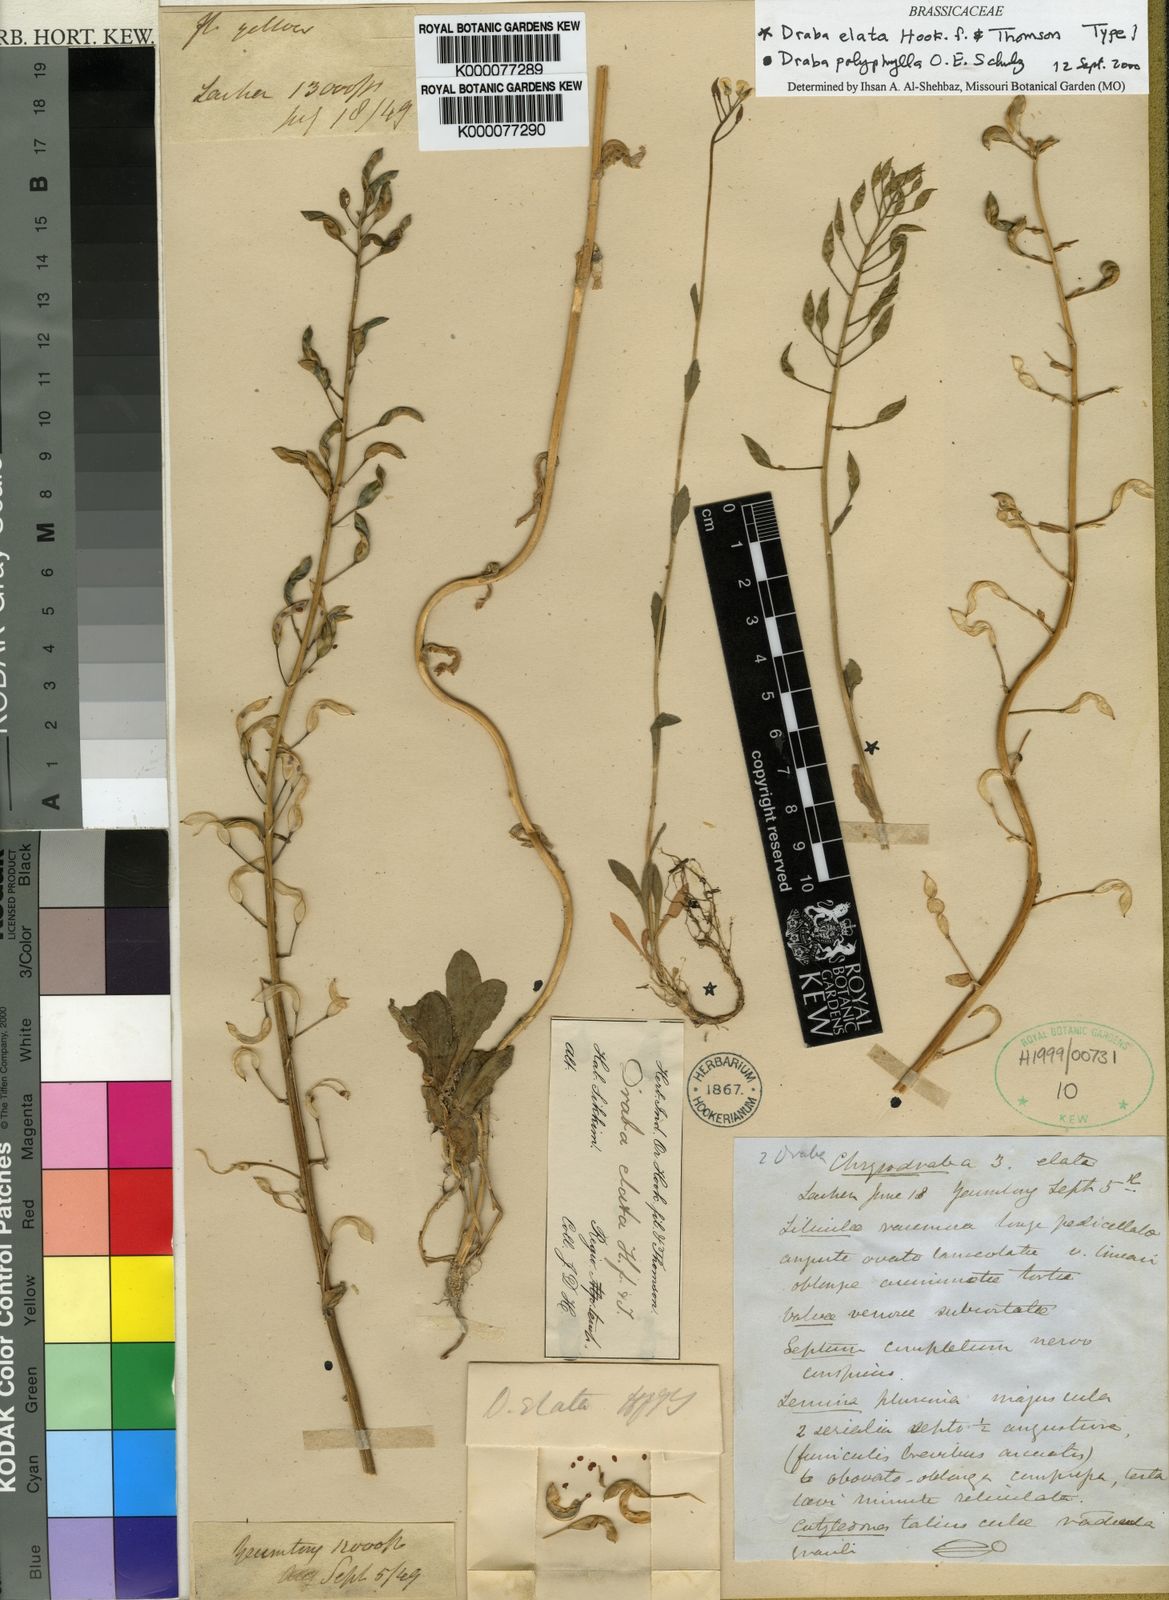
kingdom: Plantae
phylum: Tracheophyta
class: Magnoliopsida
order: Brassicales
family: Brassicaceae
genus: Draba
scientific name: Draba elata
